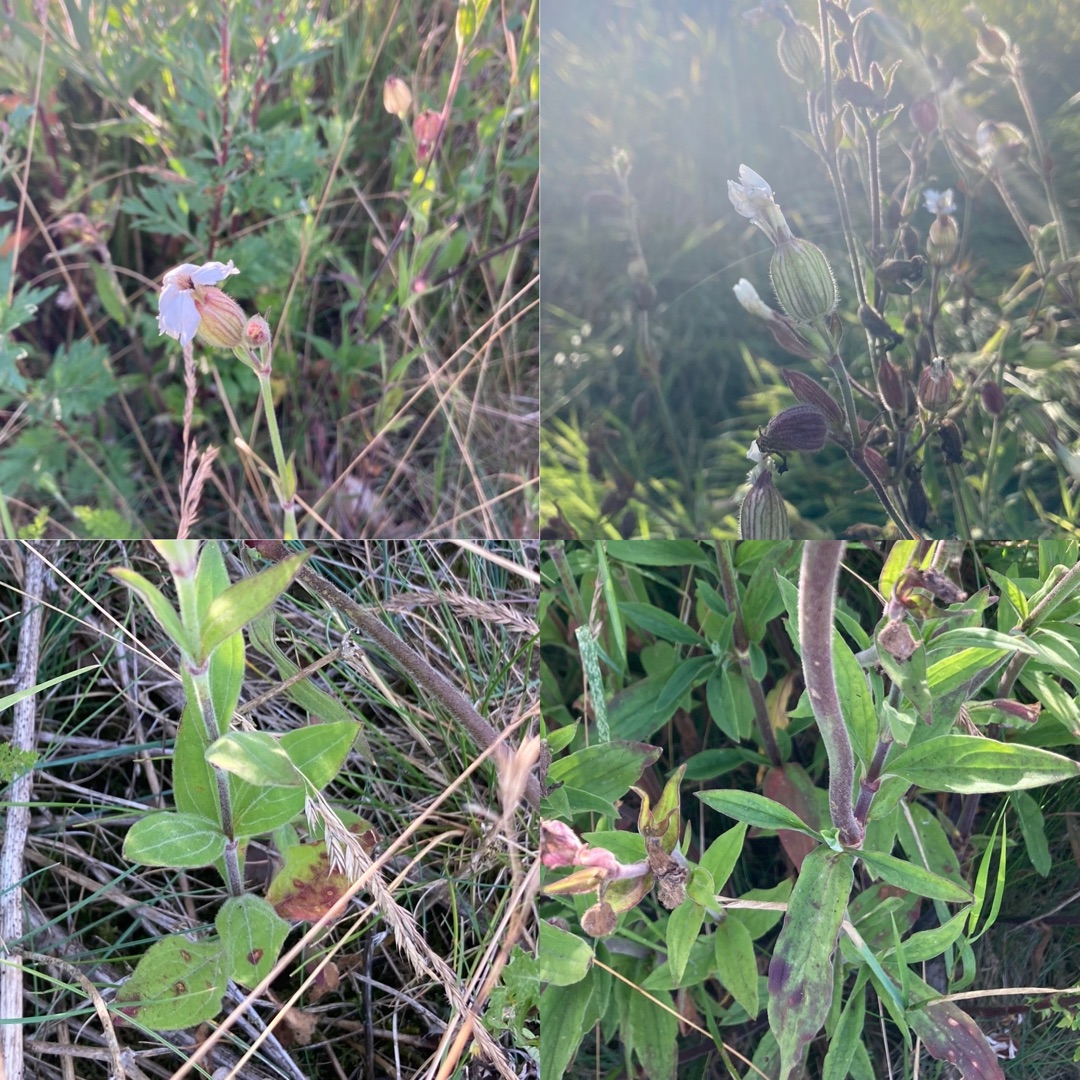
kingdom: Plantae
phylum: Tracheophyta
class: Magnoliopsida
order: Caryophyllales
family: Caryophyllaceae
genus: Silene
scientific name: Silene latifolia
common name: Aftenpragtstjerne
